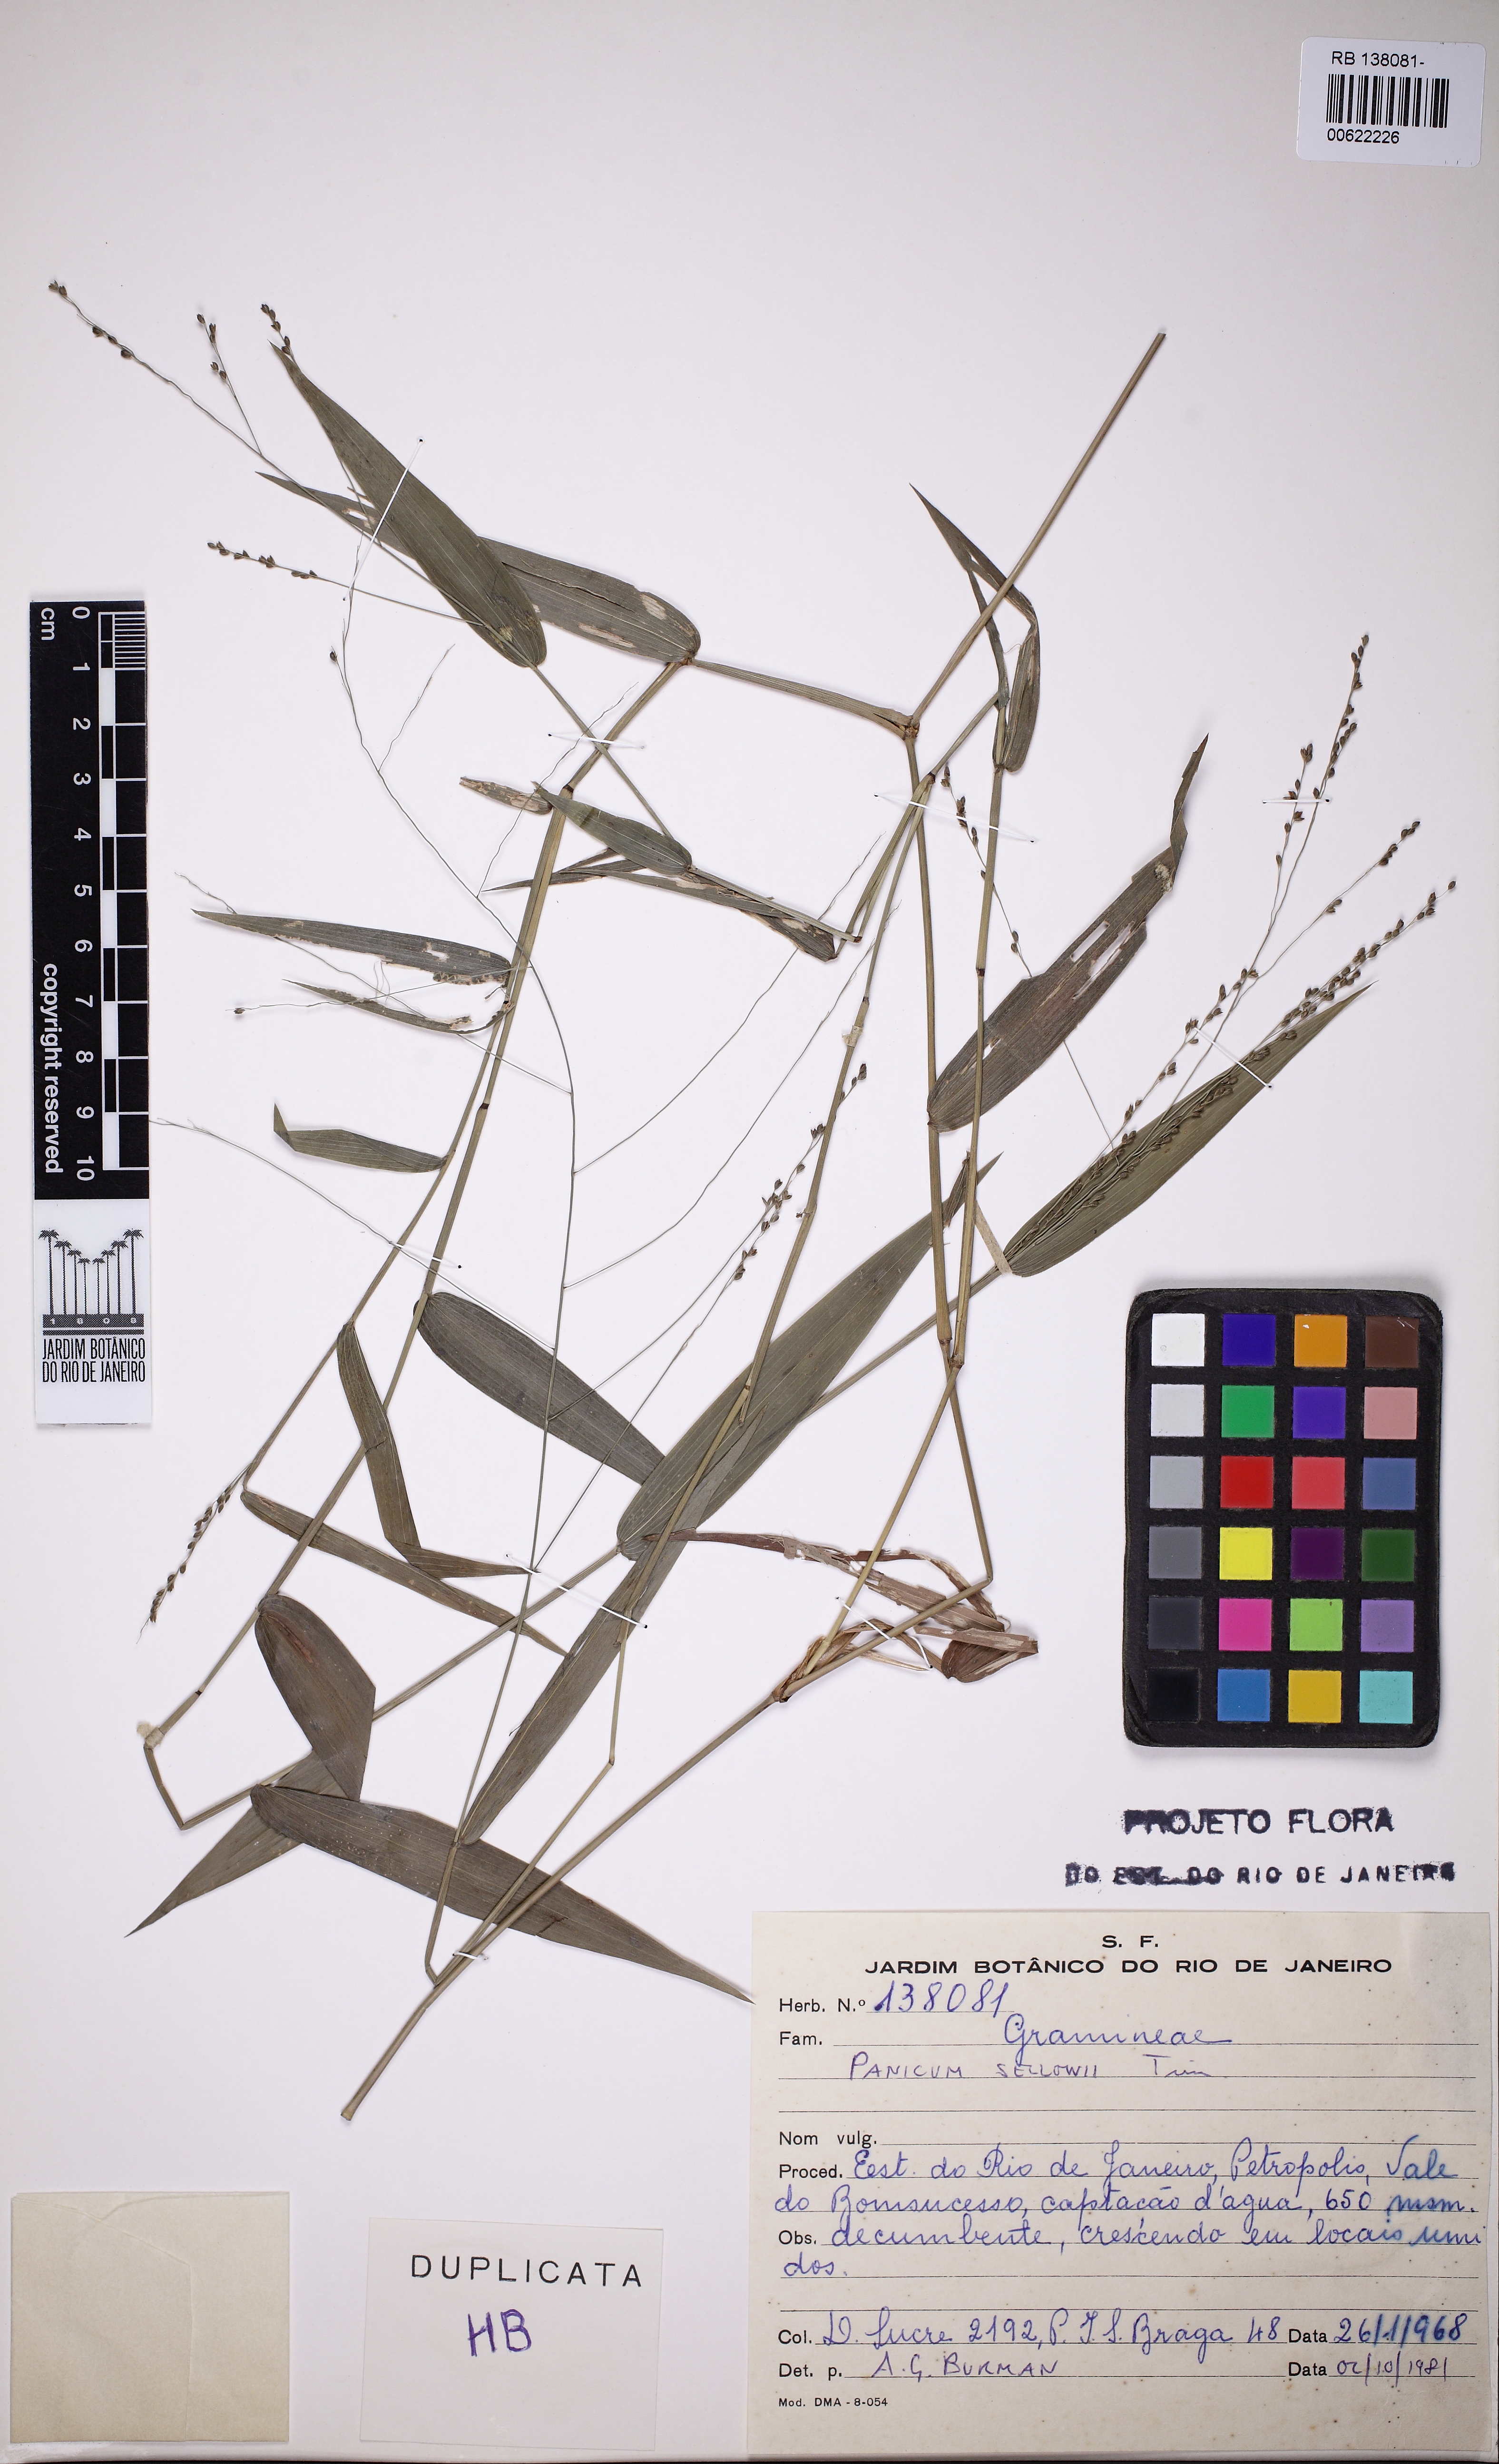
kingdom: Plantae
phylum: Tracheophyta
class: Liliopsida
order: Poales
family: Poaceae
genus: Panicum
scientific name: Panicum sellowii
